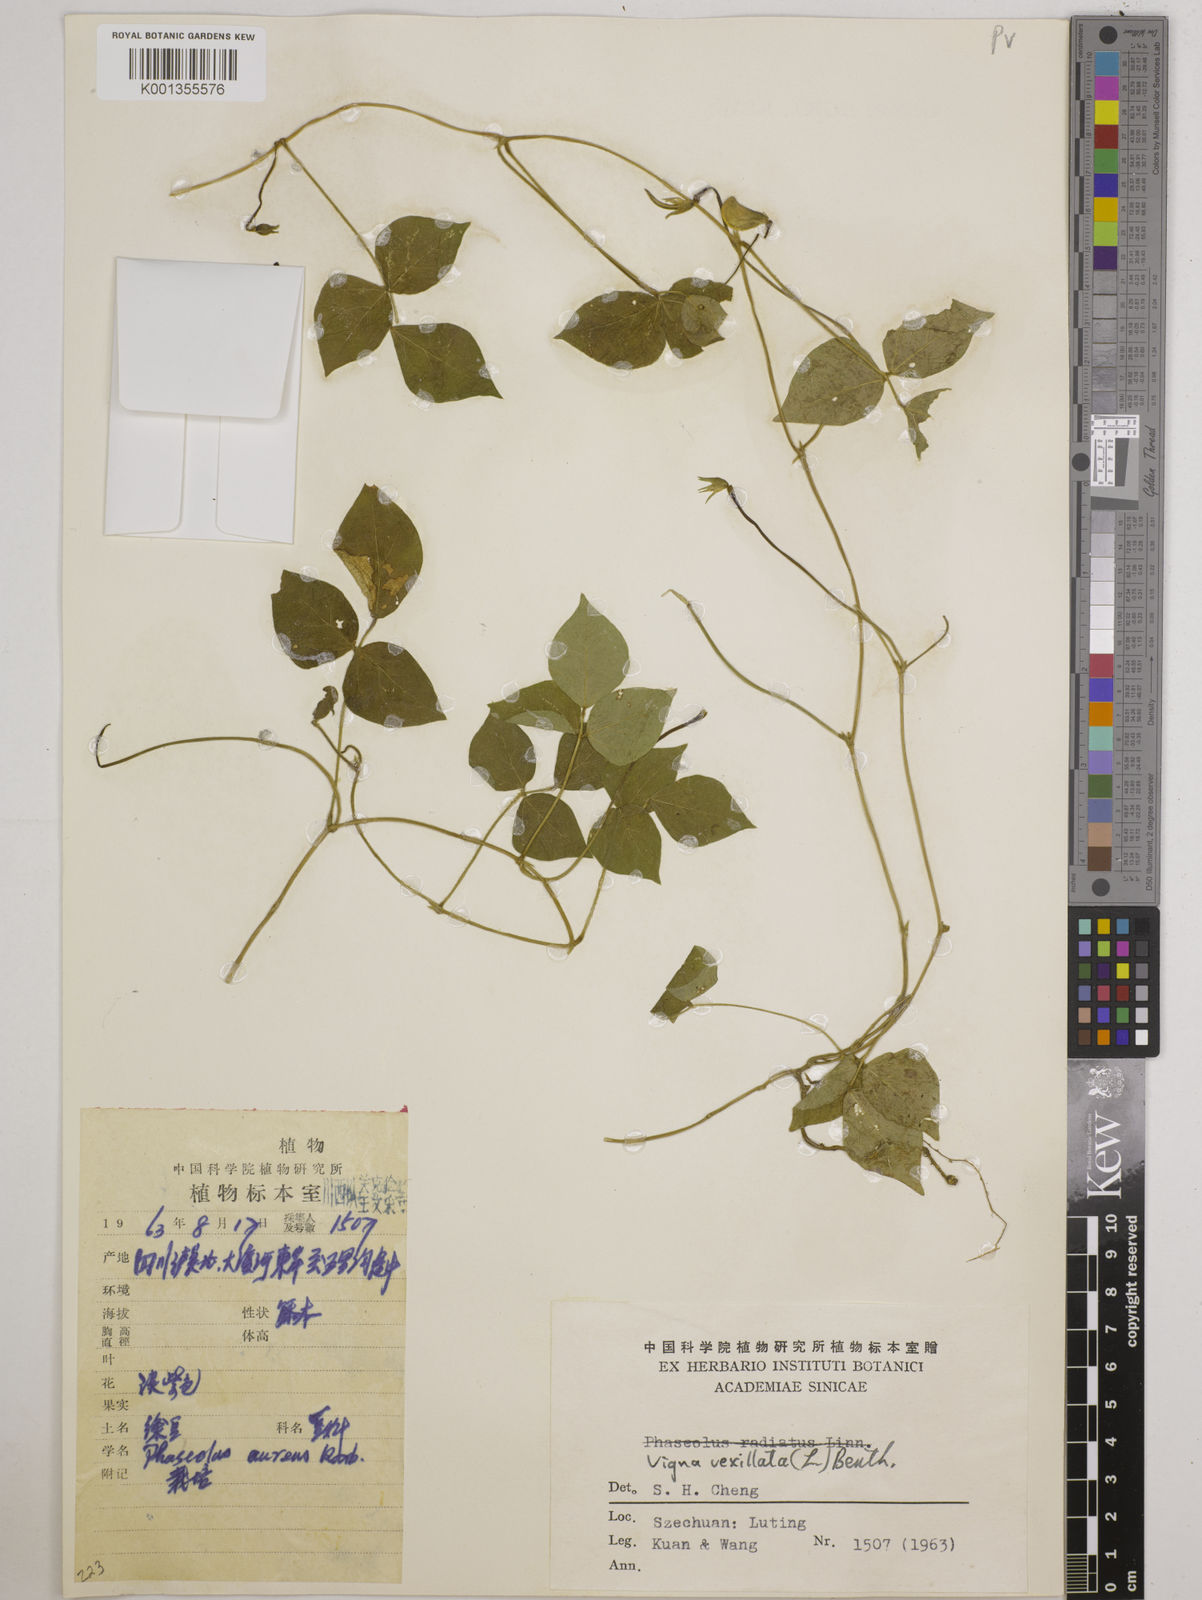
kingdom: Plantae
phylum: Tracheophyta
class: Magnoliopsida
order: Fabales
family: Fabaceae
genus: Vigna
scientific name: Vigna vexillata
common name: Zombi pea
